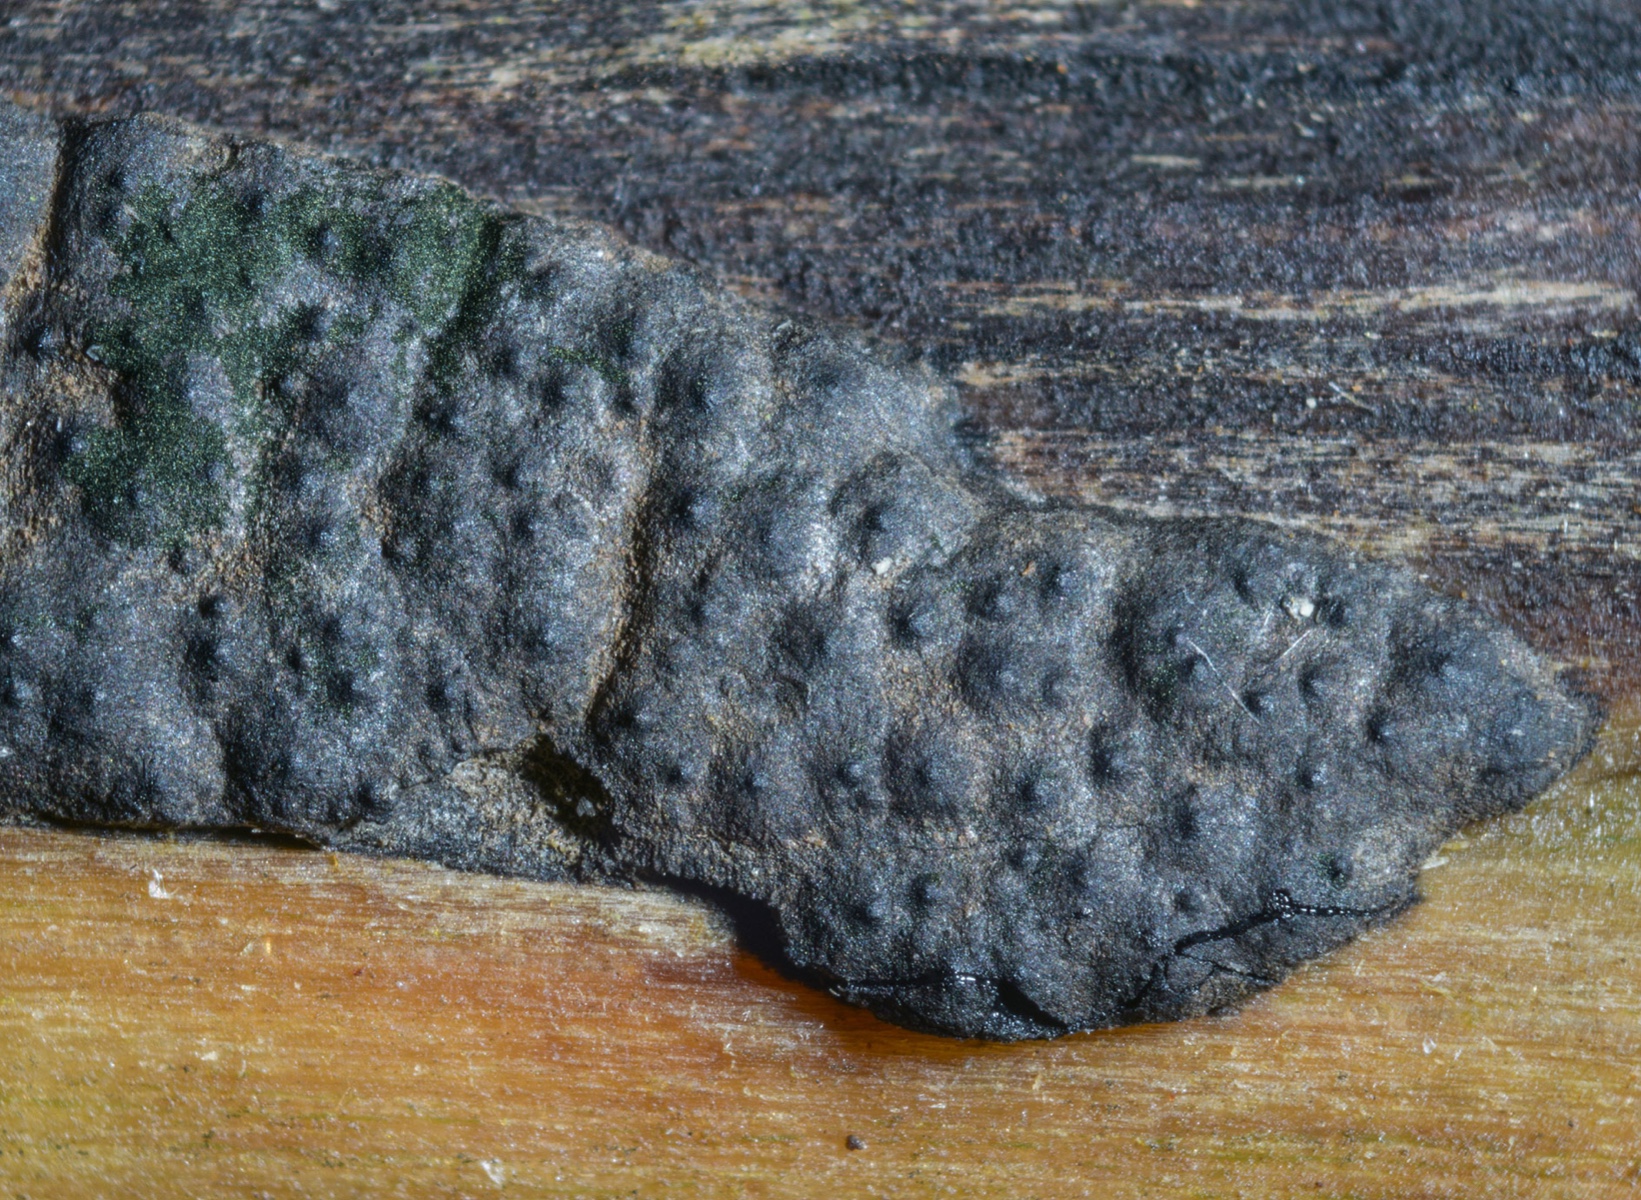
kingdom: Fungi
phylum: Ascomycota
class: Sordariomycetes
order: Xylariales
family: Xylariaceae
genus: Nemania
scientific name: Nemania serpens
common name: almindelig kuldyne
